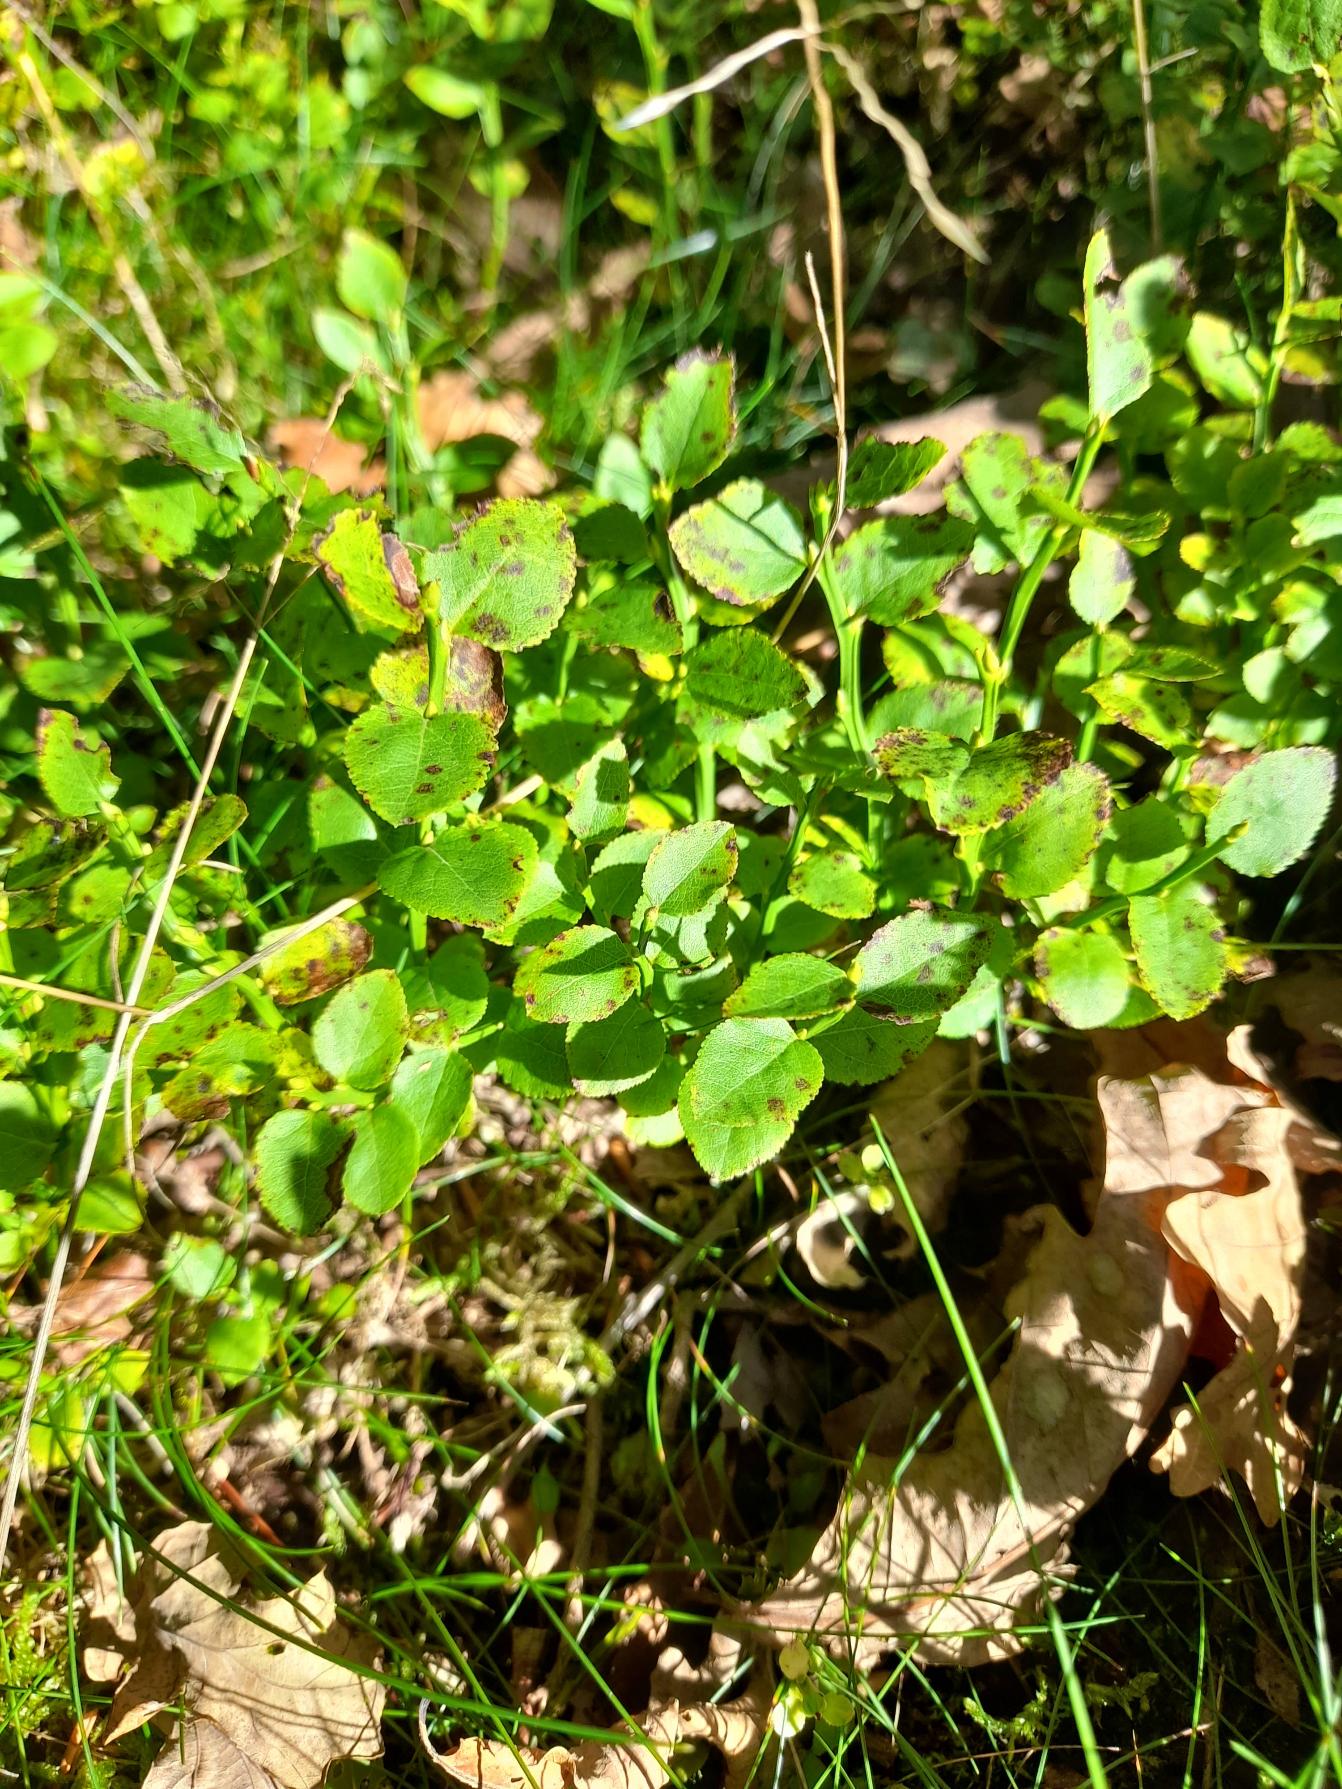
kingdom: Plantae
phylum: Tracheophyta
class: Magnoliopsida
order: Ericales
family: Ericaceae
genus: Vaccinium
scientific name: Vaccinium myrtillus
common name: Blåbær
